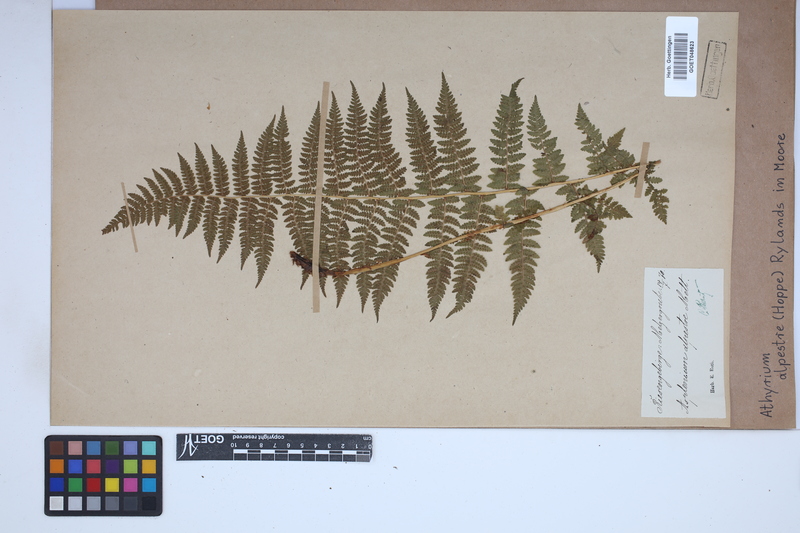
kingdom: Plantae
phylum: Tracheophyta
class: Polypodiopsida
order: Polypodiales
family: Athyriaceae
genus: Pseudathyrium
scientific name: Pseudathyrium alpestre
